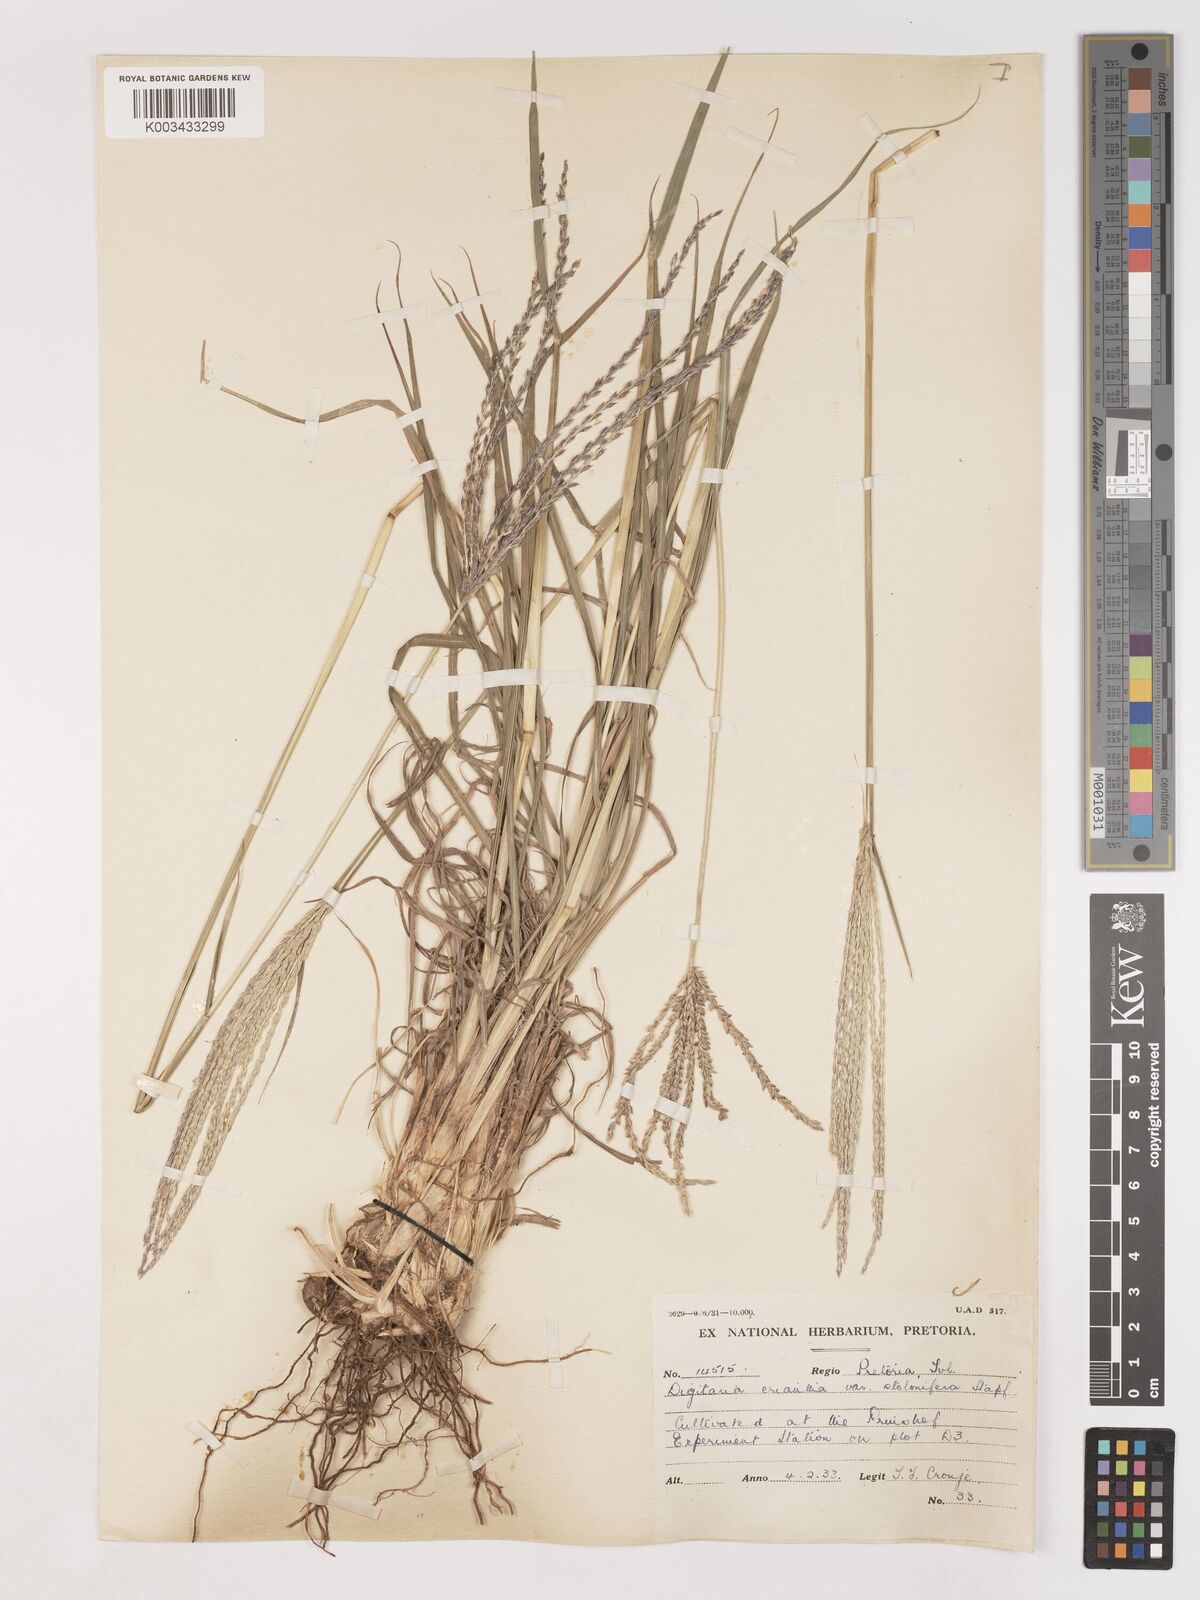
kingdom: Plantae
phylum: Tracheophyta
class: Liliopsida
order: Poales
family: Poaceae
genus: Digitaria
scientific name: Digitaria eriantha
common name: Digitgrass
